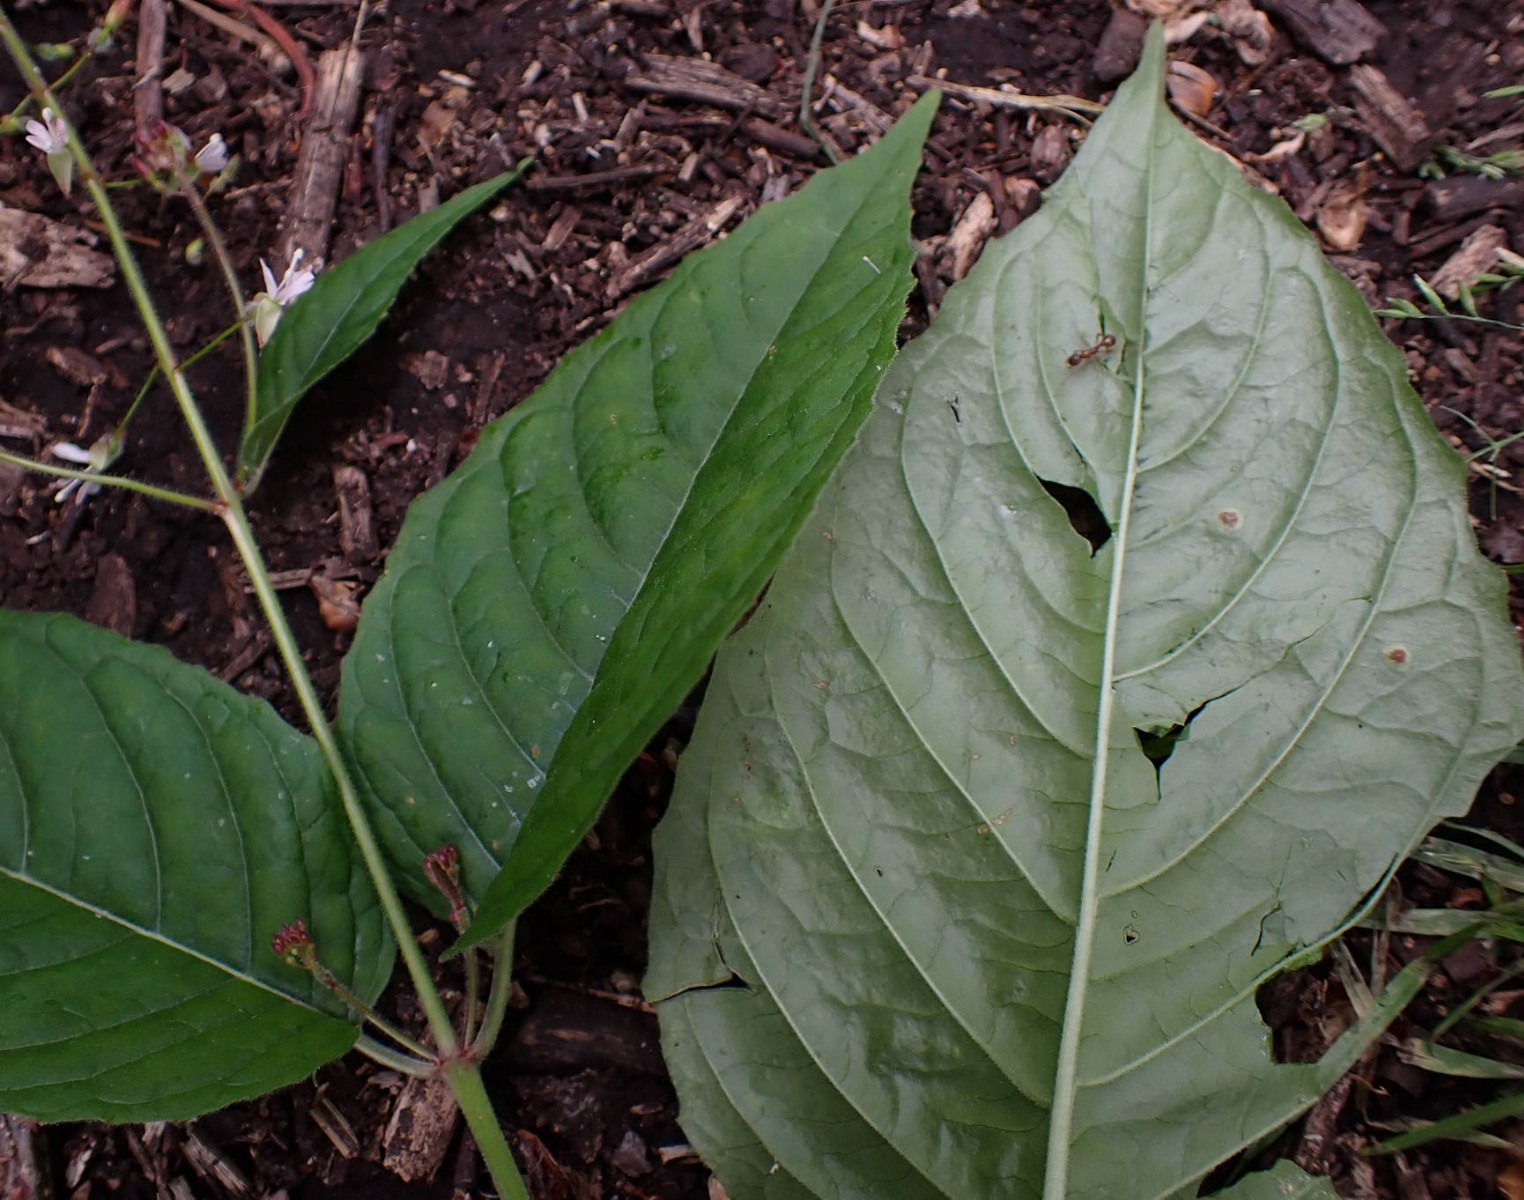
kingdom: Fungi
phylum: Basidiomycota
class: Pucciniomycetes
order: Pucciniales
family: Pucciniaceae
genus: Puccinia
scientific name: Puccinia circaeae
